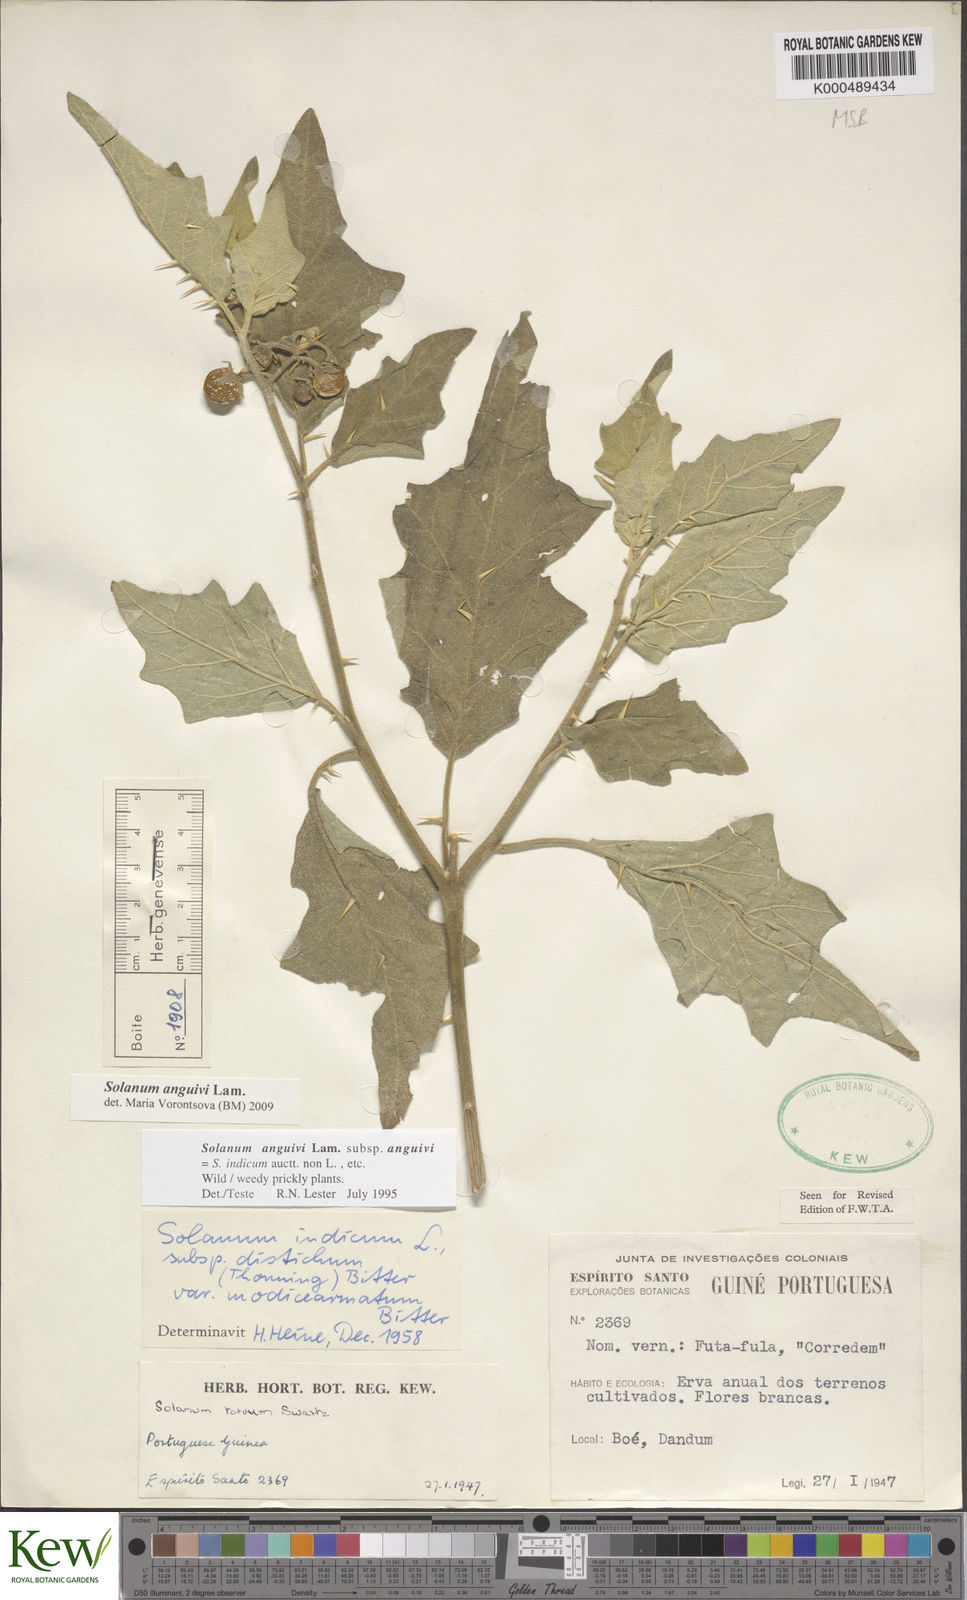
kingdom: Plantae
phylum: Tracheophyta
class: Magnoliopsida
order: Solanales
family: Solanaceae
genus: Solanum
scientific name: Solanum anguivi
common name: Forest bitterberry
